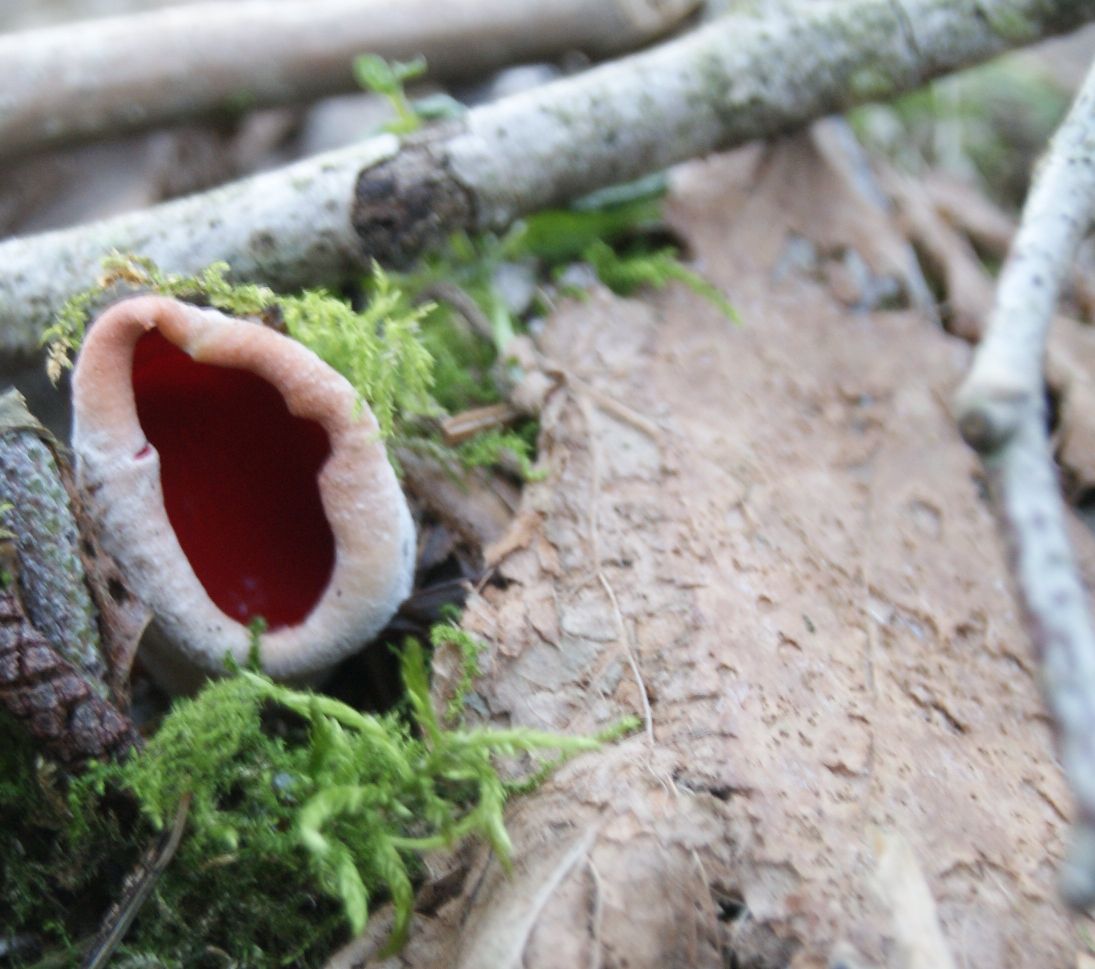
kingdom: Fungi
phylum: Ascomycota
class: Pezizomycetes
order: Pezizales
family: Sarcoscyphaceae
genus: Sarcoscypha
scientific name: Sarcoscypha austriaca
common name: krølhåret pragtbæger
